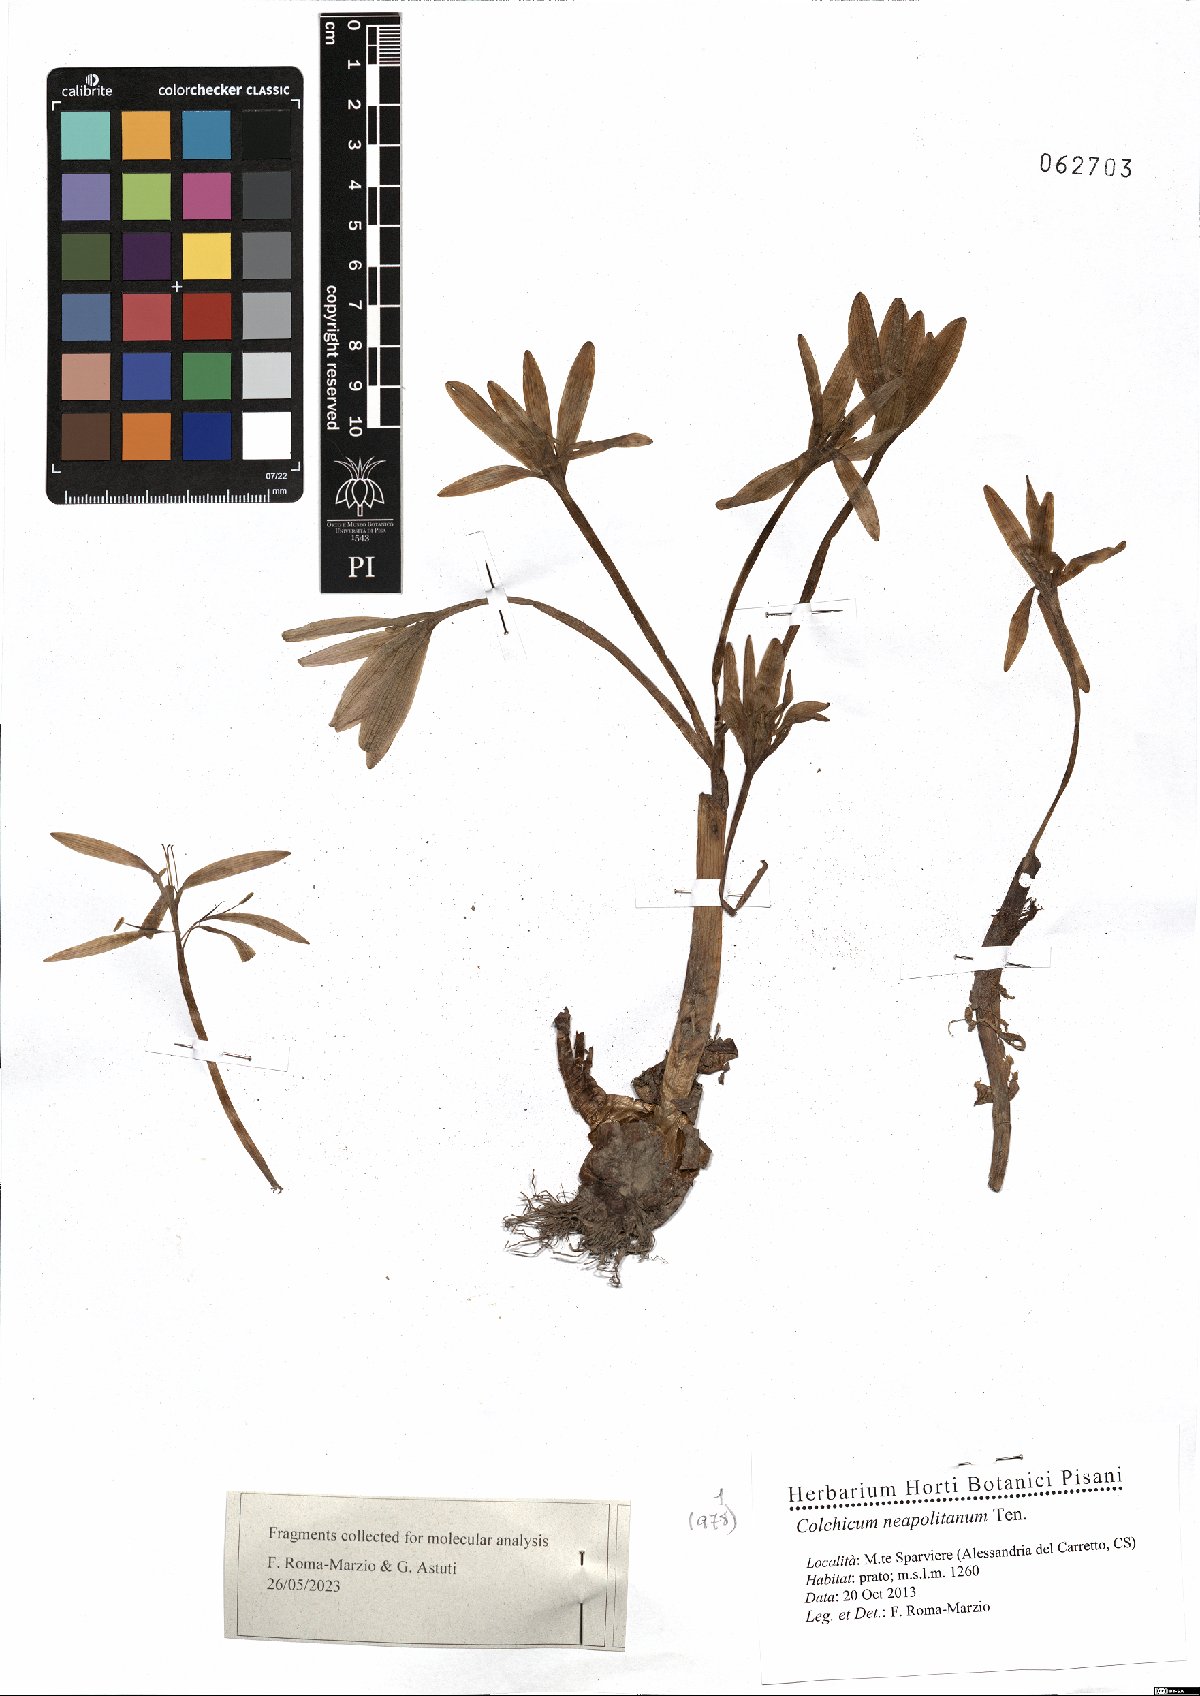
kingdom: Plantae
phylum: Tracheophyta
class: Liliopsida
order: Liliales
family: Colchicaceae
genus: Colchicum
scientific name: Colchicum neapolitanum
